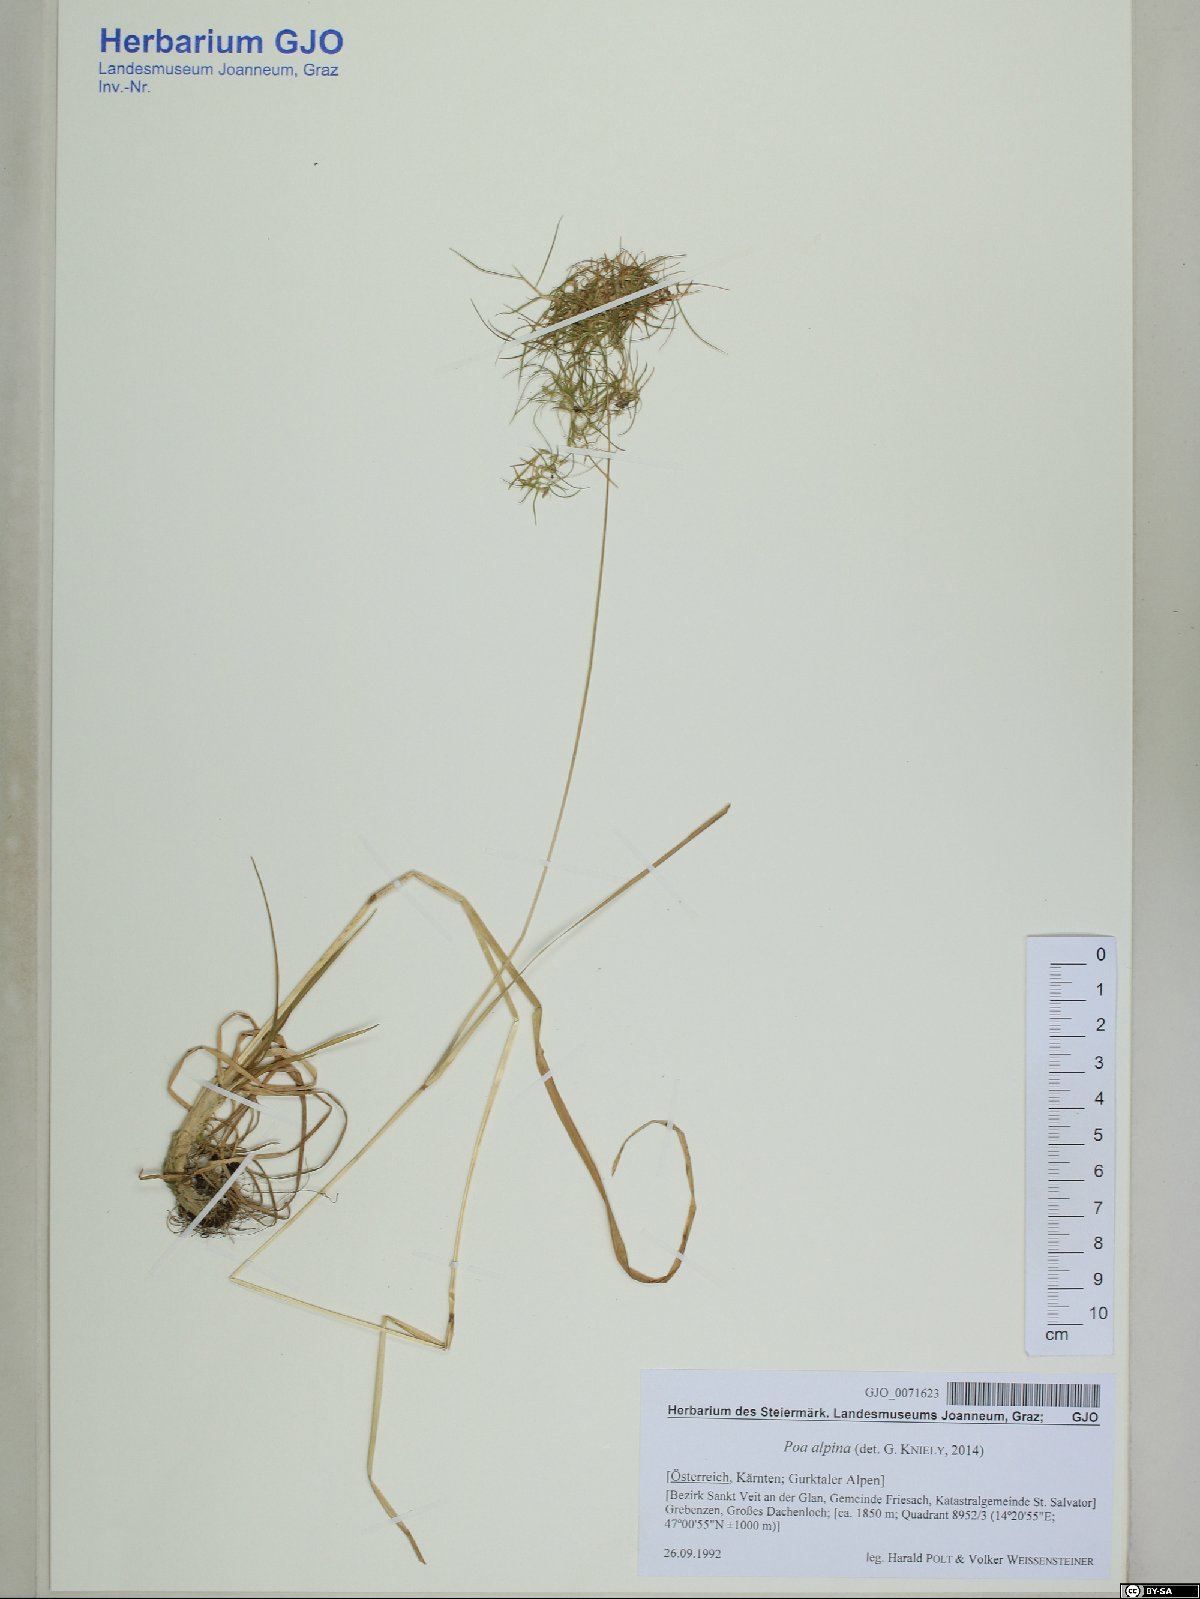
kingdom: Plantae
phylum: Tracheophyta
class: Liliopsida
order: Poales
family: Poaceae
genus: Poa
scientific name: Poa alpina
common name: Alpine bluegrass
